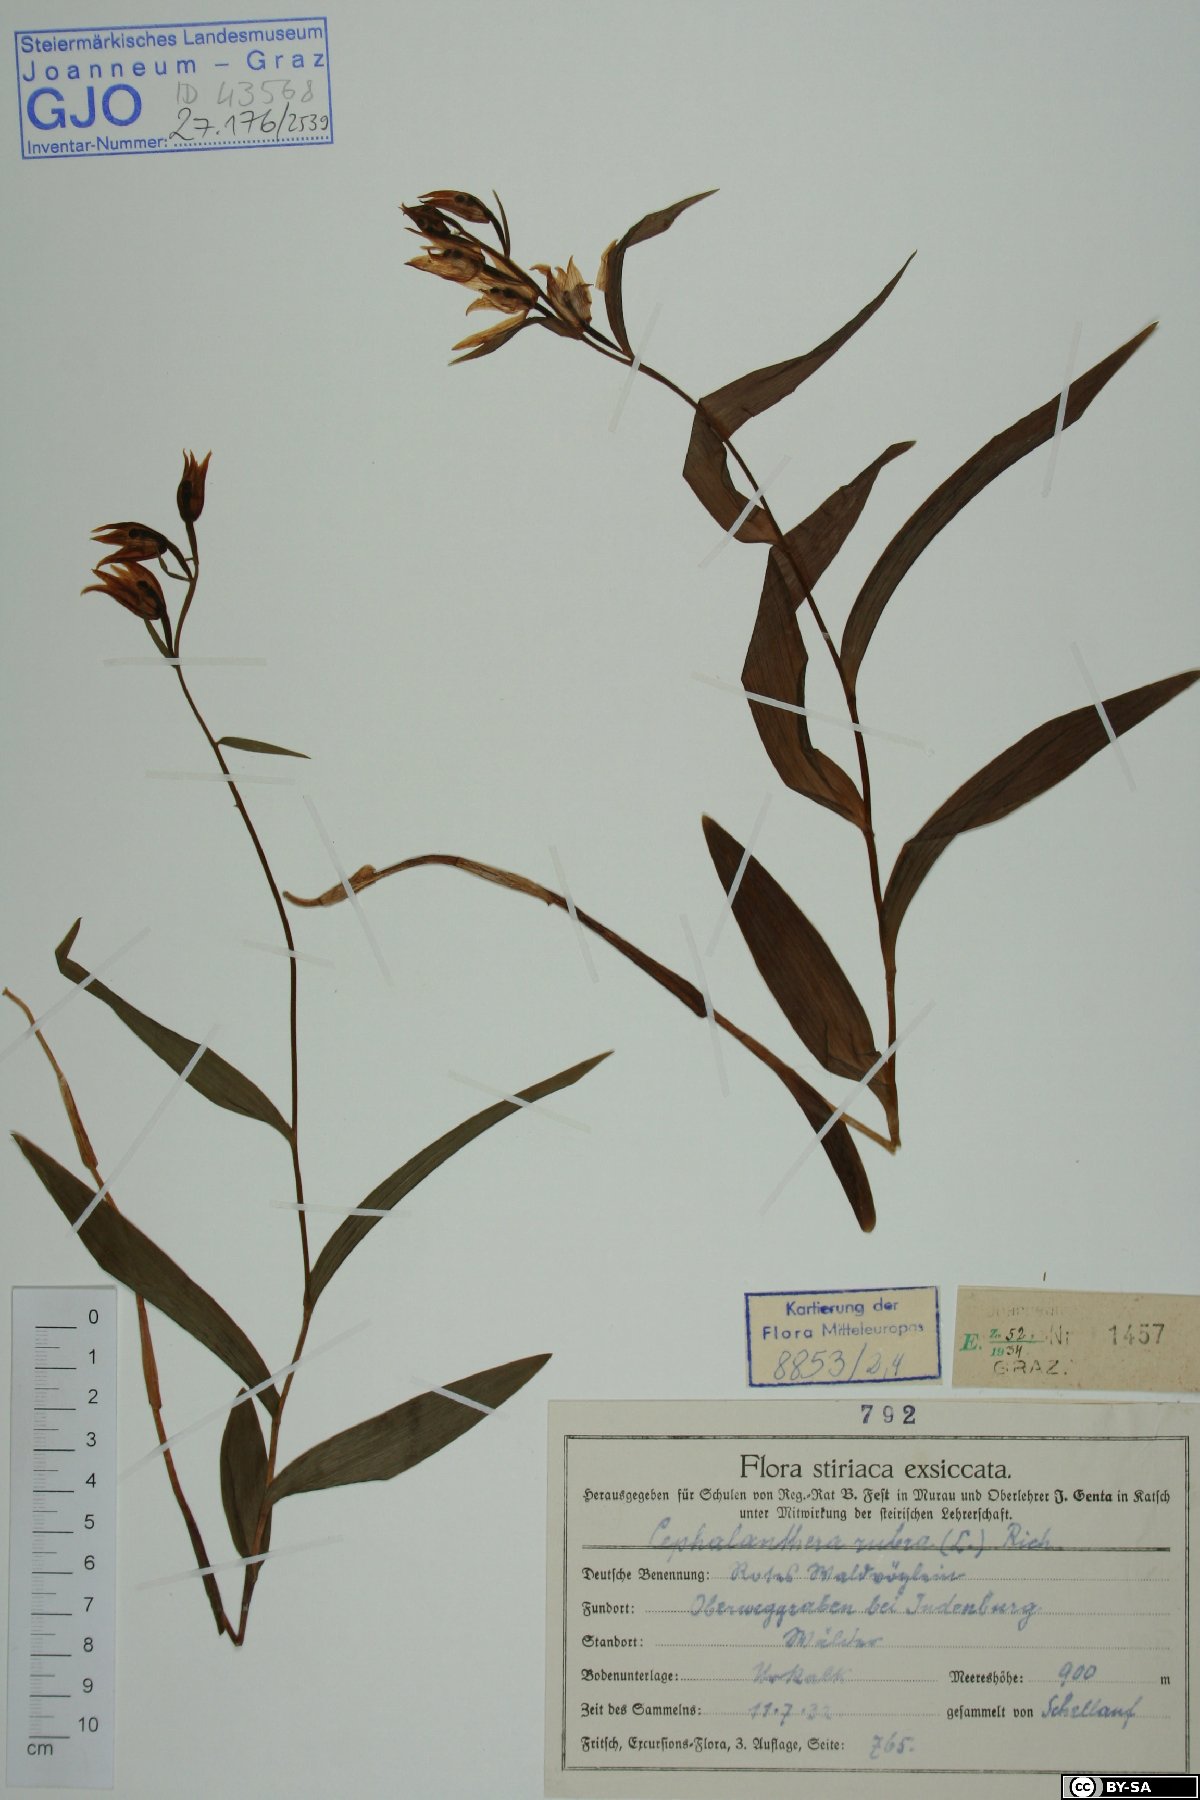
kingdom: Plantae
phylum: Tracheophyta
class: Liliopsida
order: Asparagales
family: Orchidaceae
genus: Cephalanthera
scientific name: Cephalanthera rubra
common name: Red helleborine
